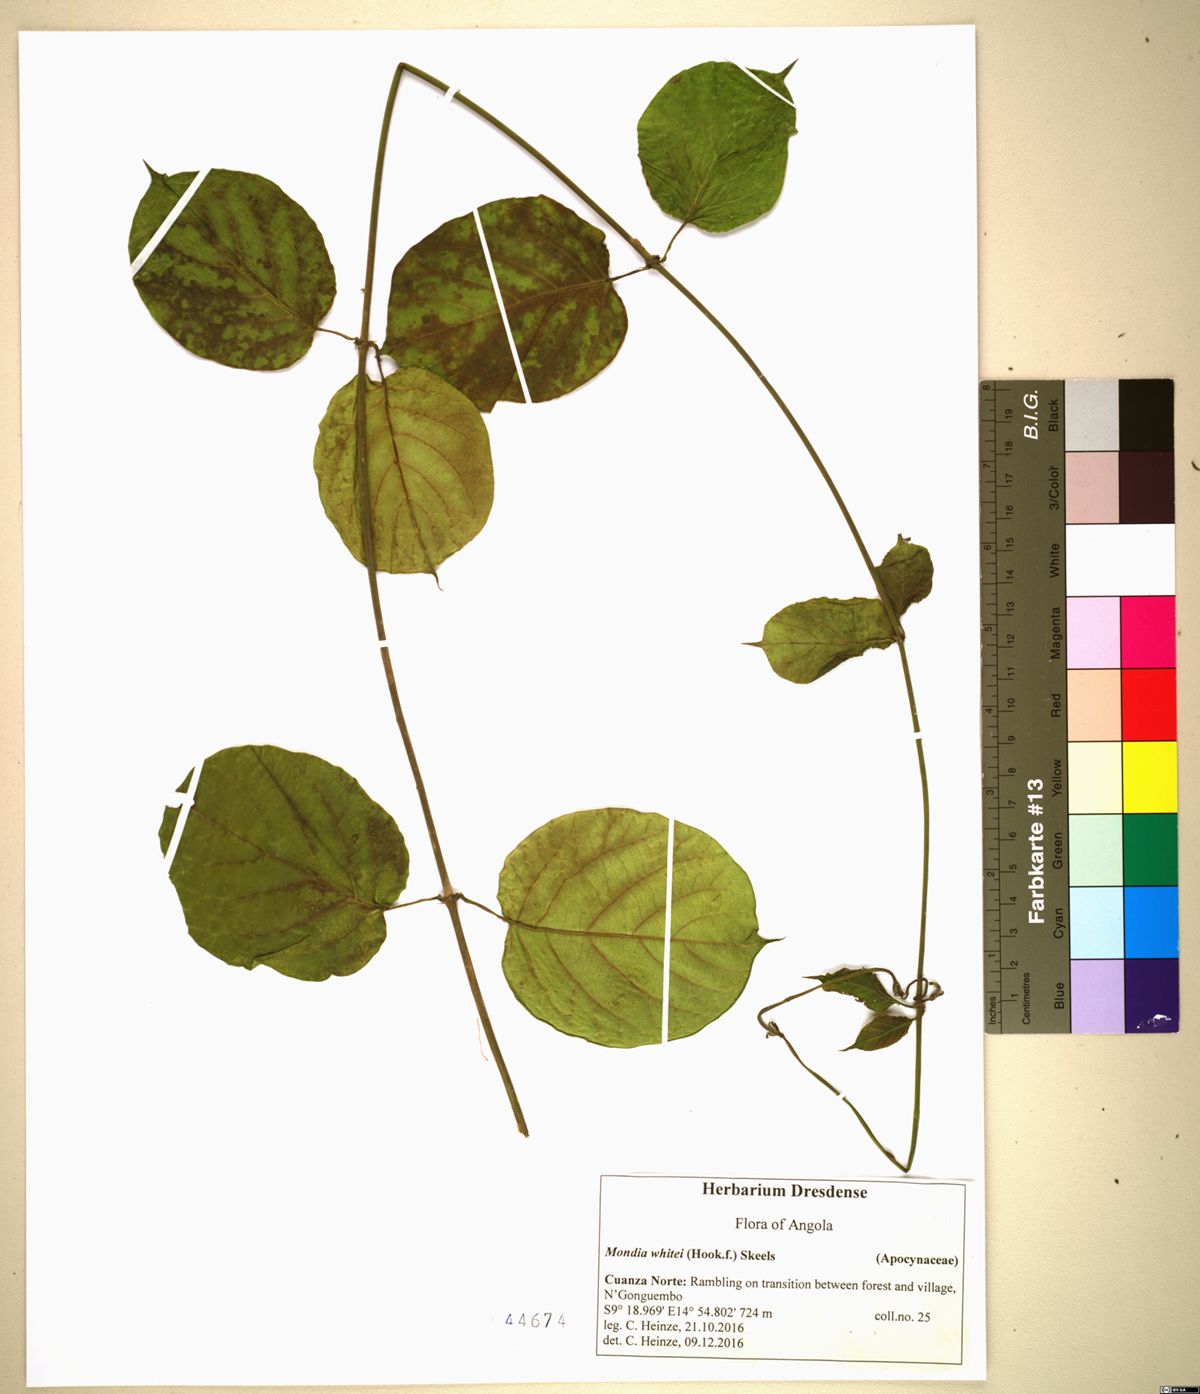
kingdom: Plantae
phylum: Tracheophyta
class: Magnoliopsida
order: Gentianales
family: Apocynaceae
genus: Mondia
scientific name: Mondia whitei
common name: Mondia
